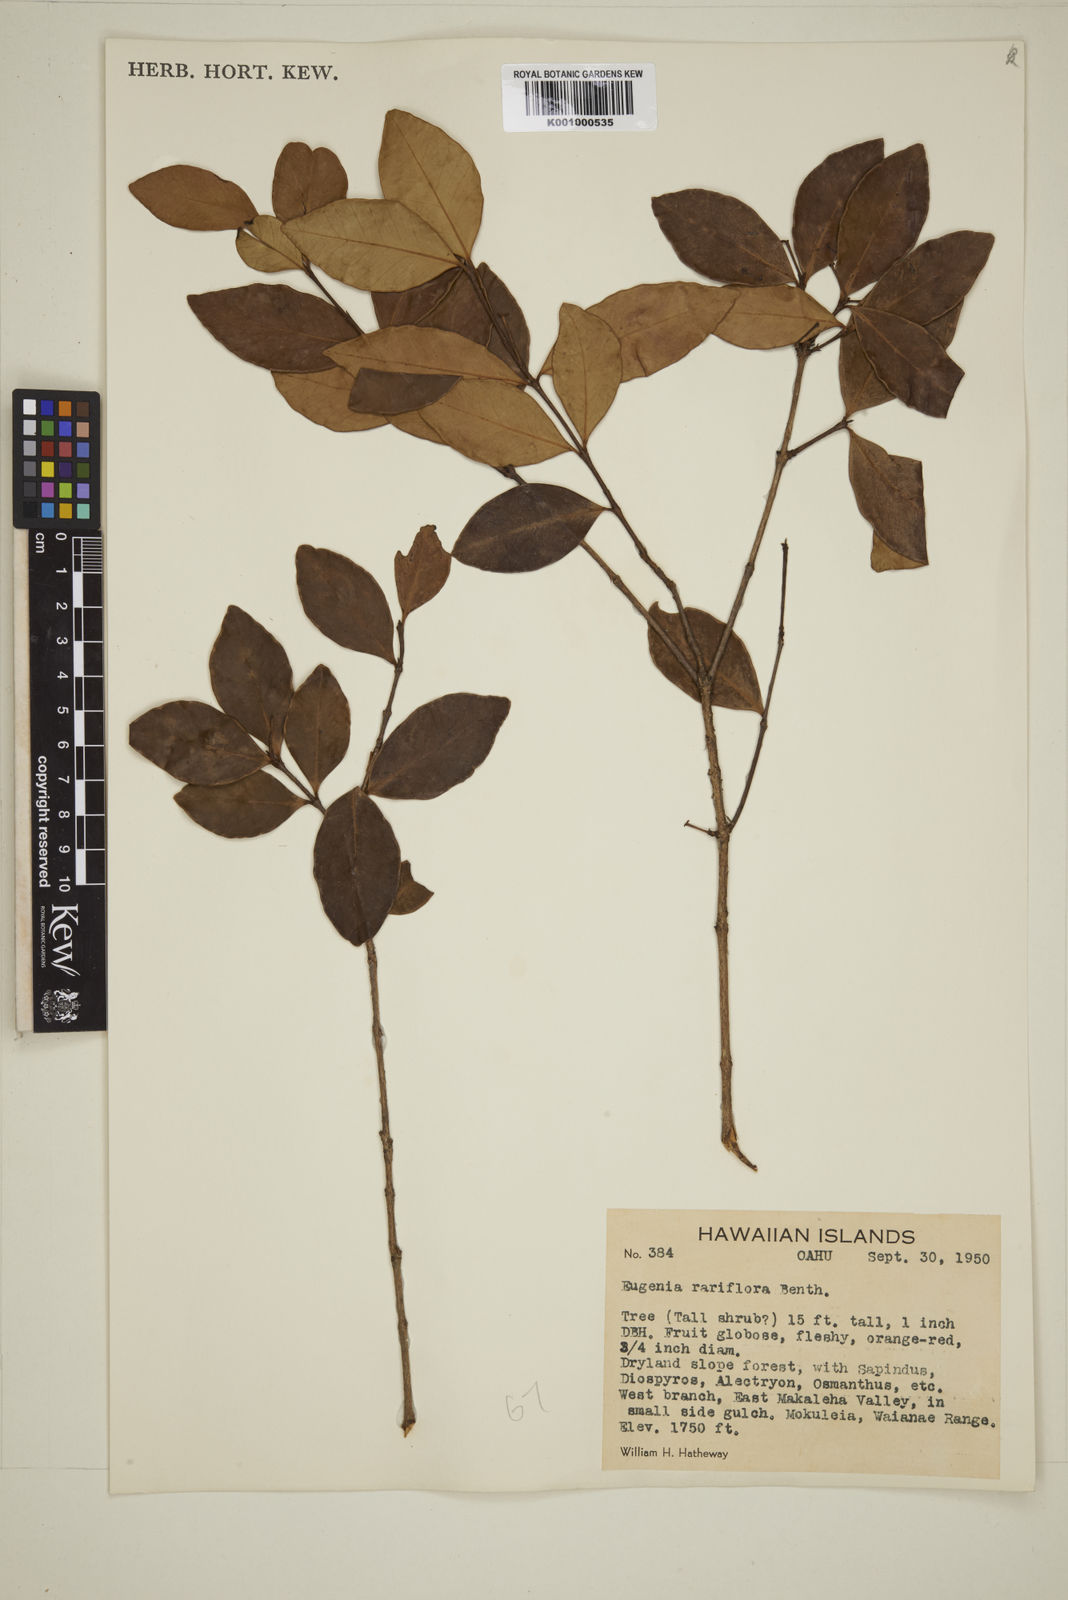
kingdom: Plantae
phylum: Tracheophyta
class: Magnoliopsida
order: Myrtales
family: Myrtaceae
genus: Eugenia
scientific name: Eugenia reinwardtiana
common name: Cedar bay-cherry
